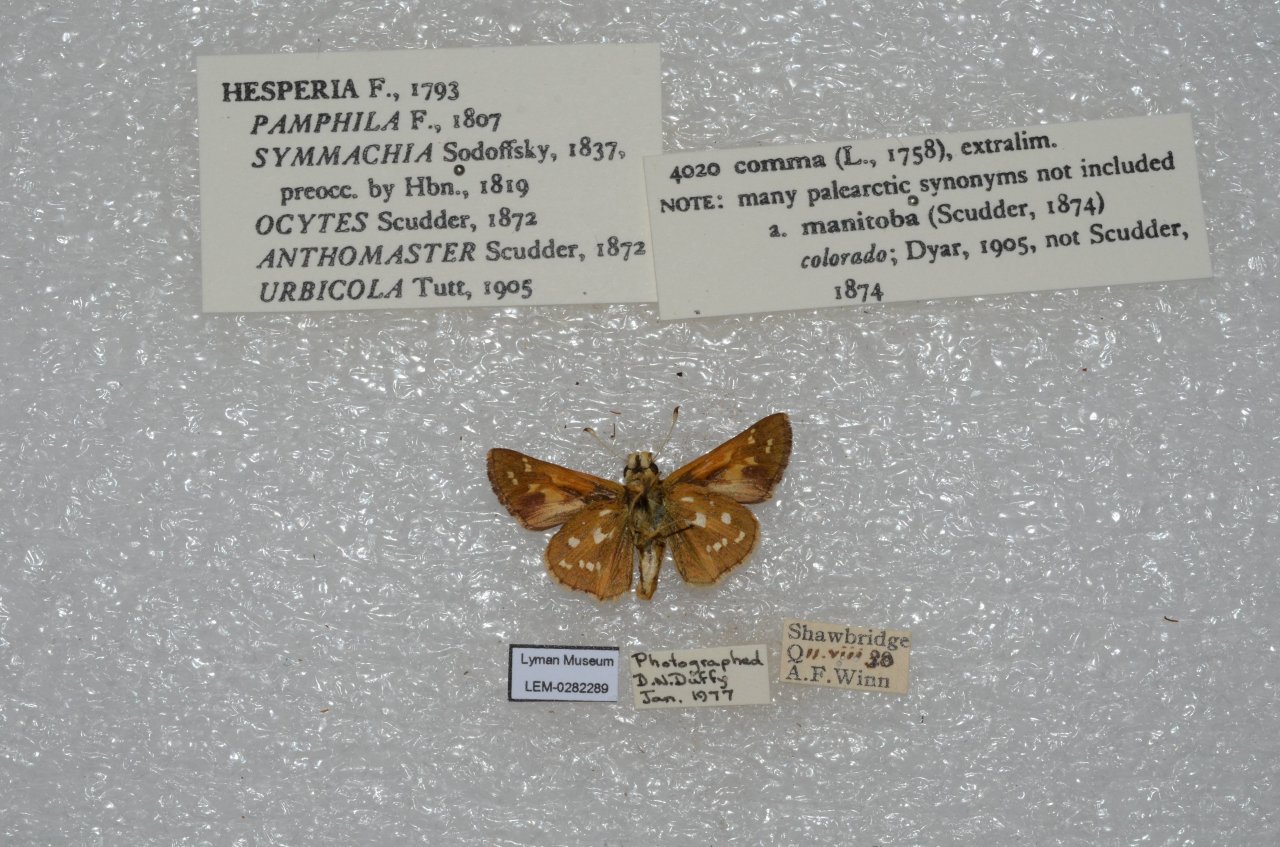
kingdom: Animalia
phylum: Arthropoda
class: Insecta
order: Lepidoptera
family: Hesperiidae
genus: Hesperia
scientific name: Hesperia comma
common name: Common Branded Skipper
